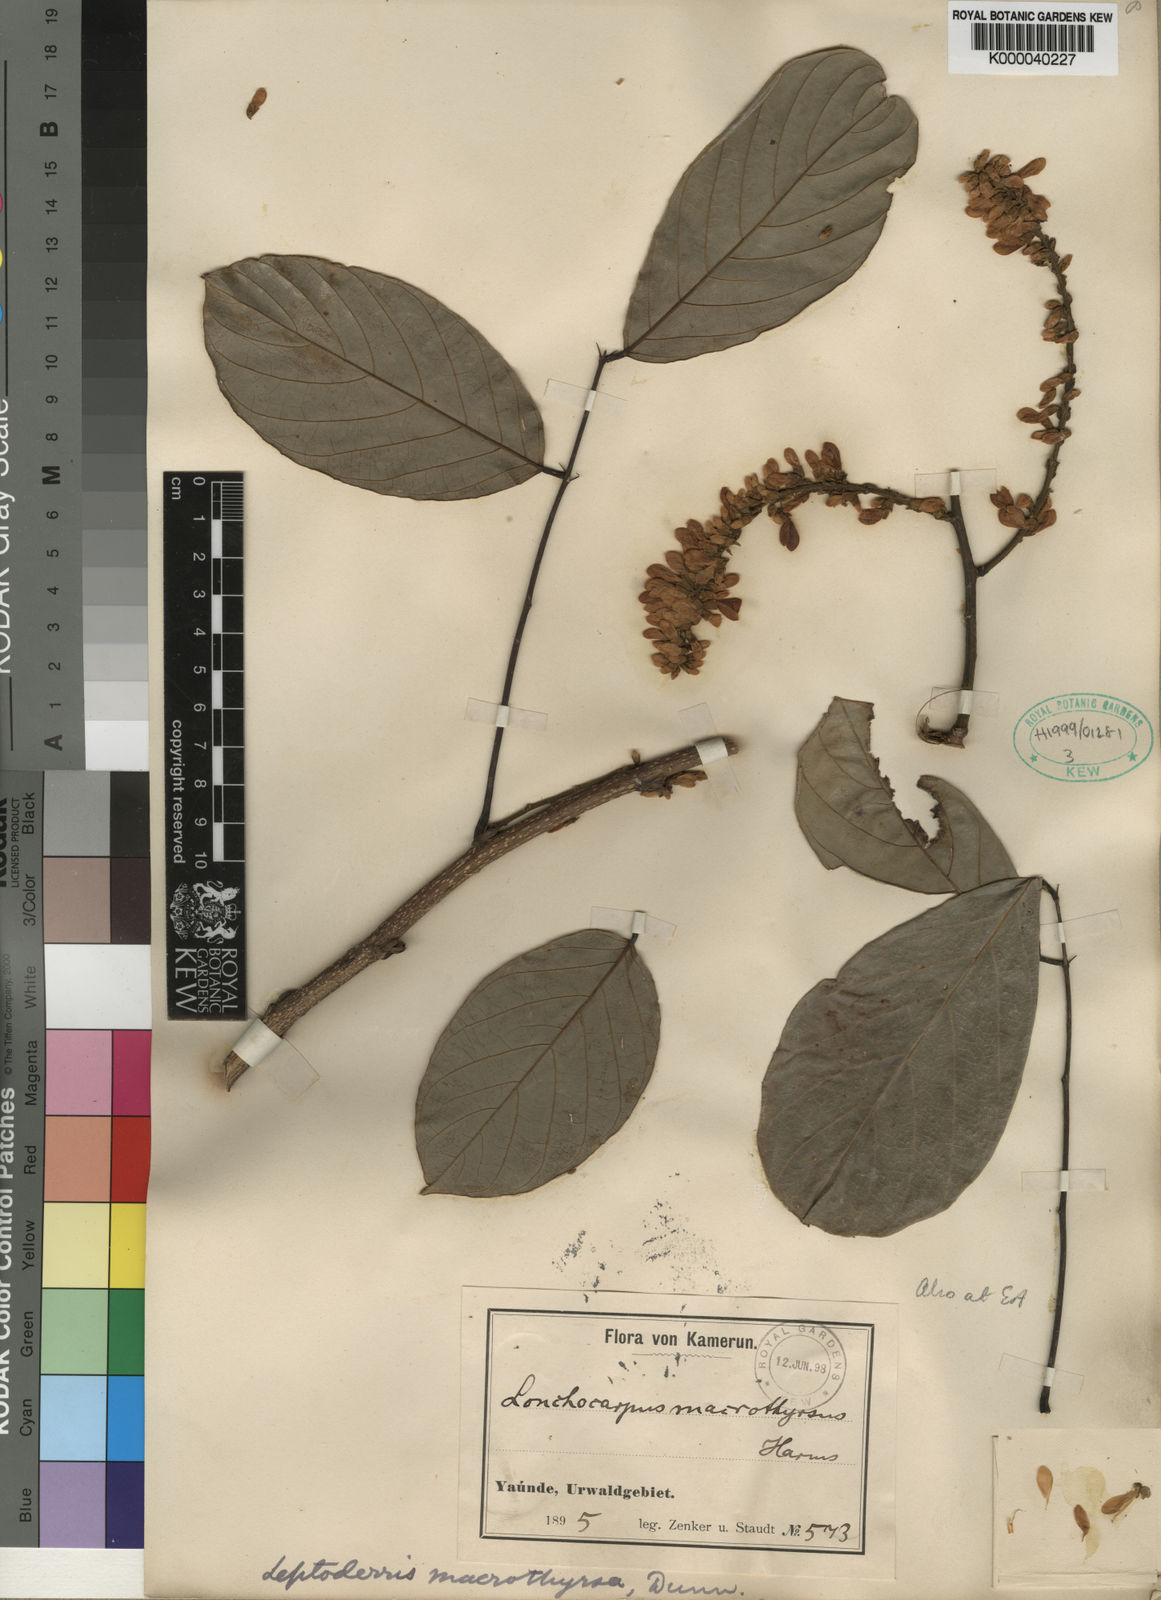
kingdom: Plantae
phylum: Tracheophyta
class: Magnoliopsida
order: Fabales
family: Fabaceae
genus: Leptoderris
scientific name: Leptoderris
